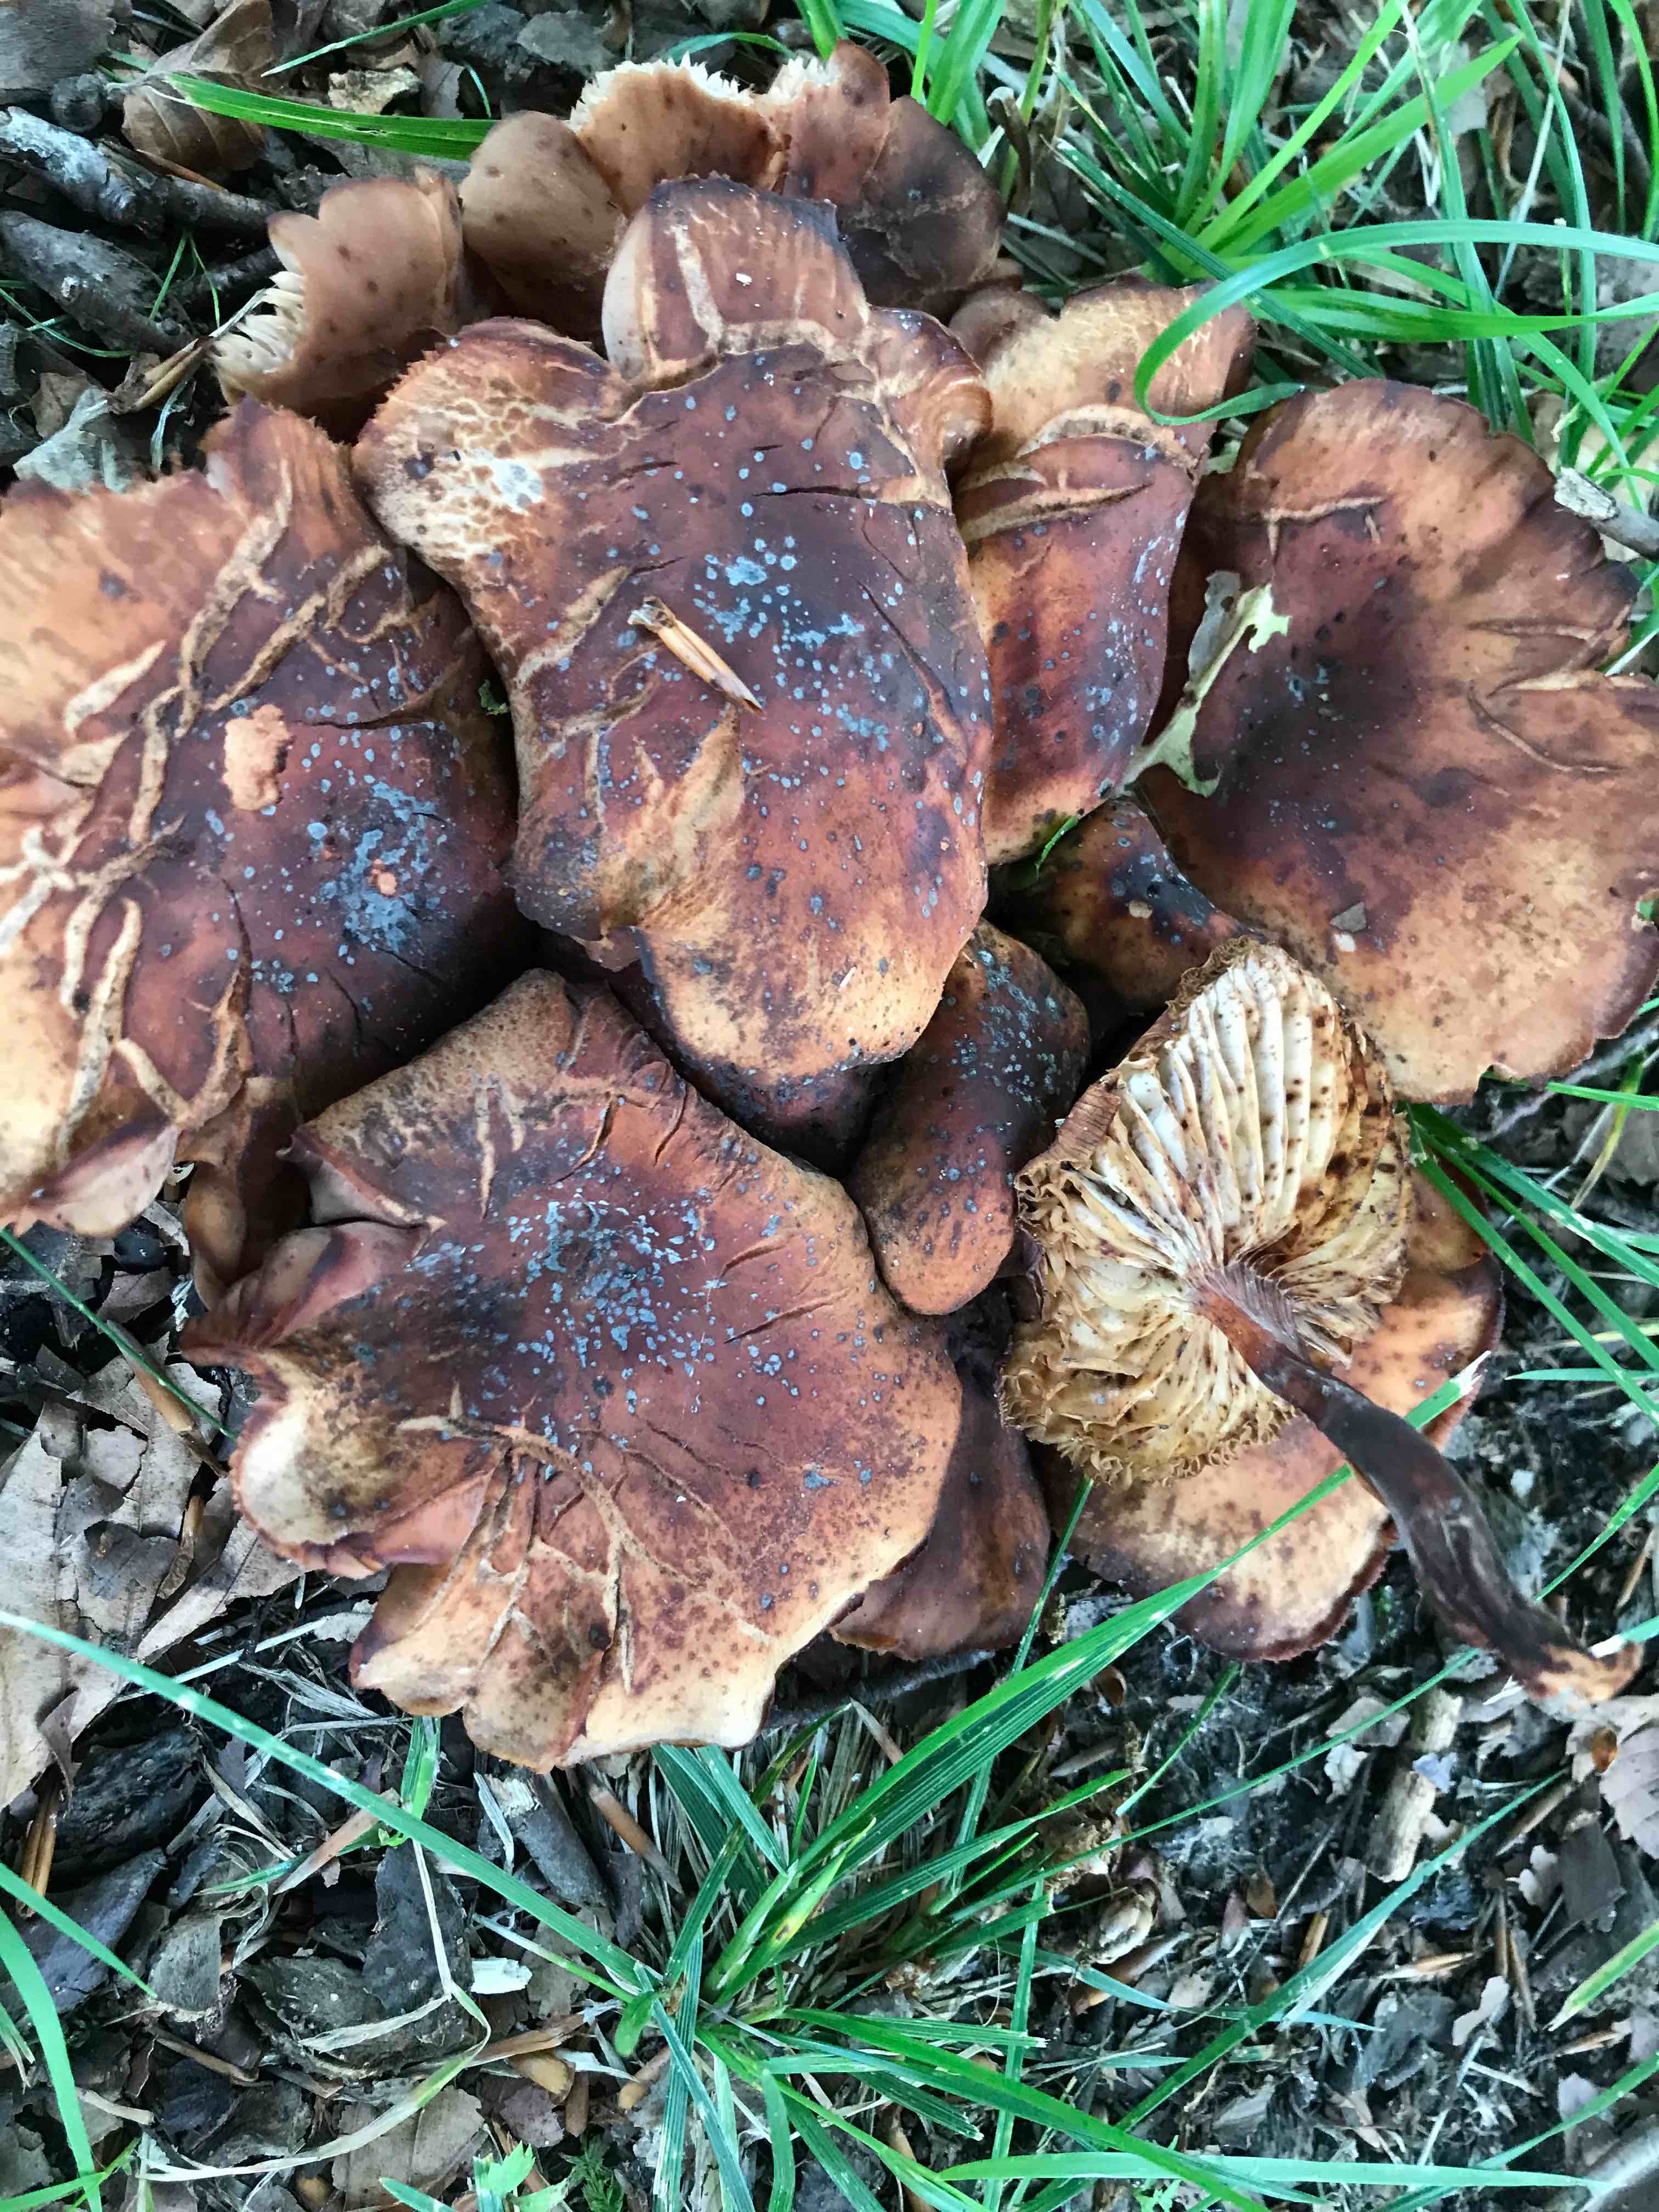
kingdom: Fungi
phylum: Basidiomycota
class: Agaricomycetes
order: Agaricales
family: Omphalotaceae
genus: Gymnopus
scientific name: Gymnopus fusipes
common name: tenstokket fladhat
